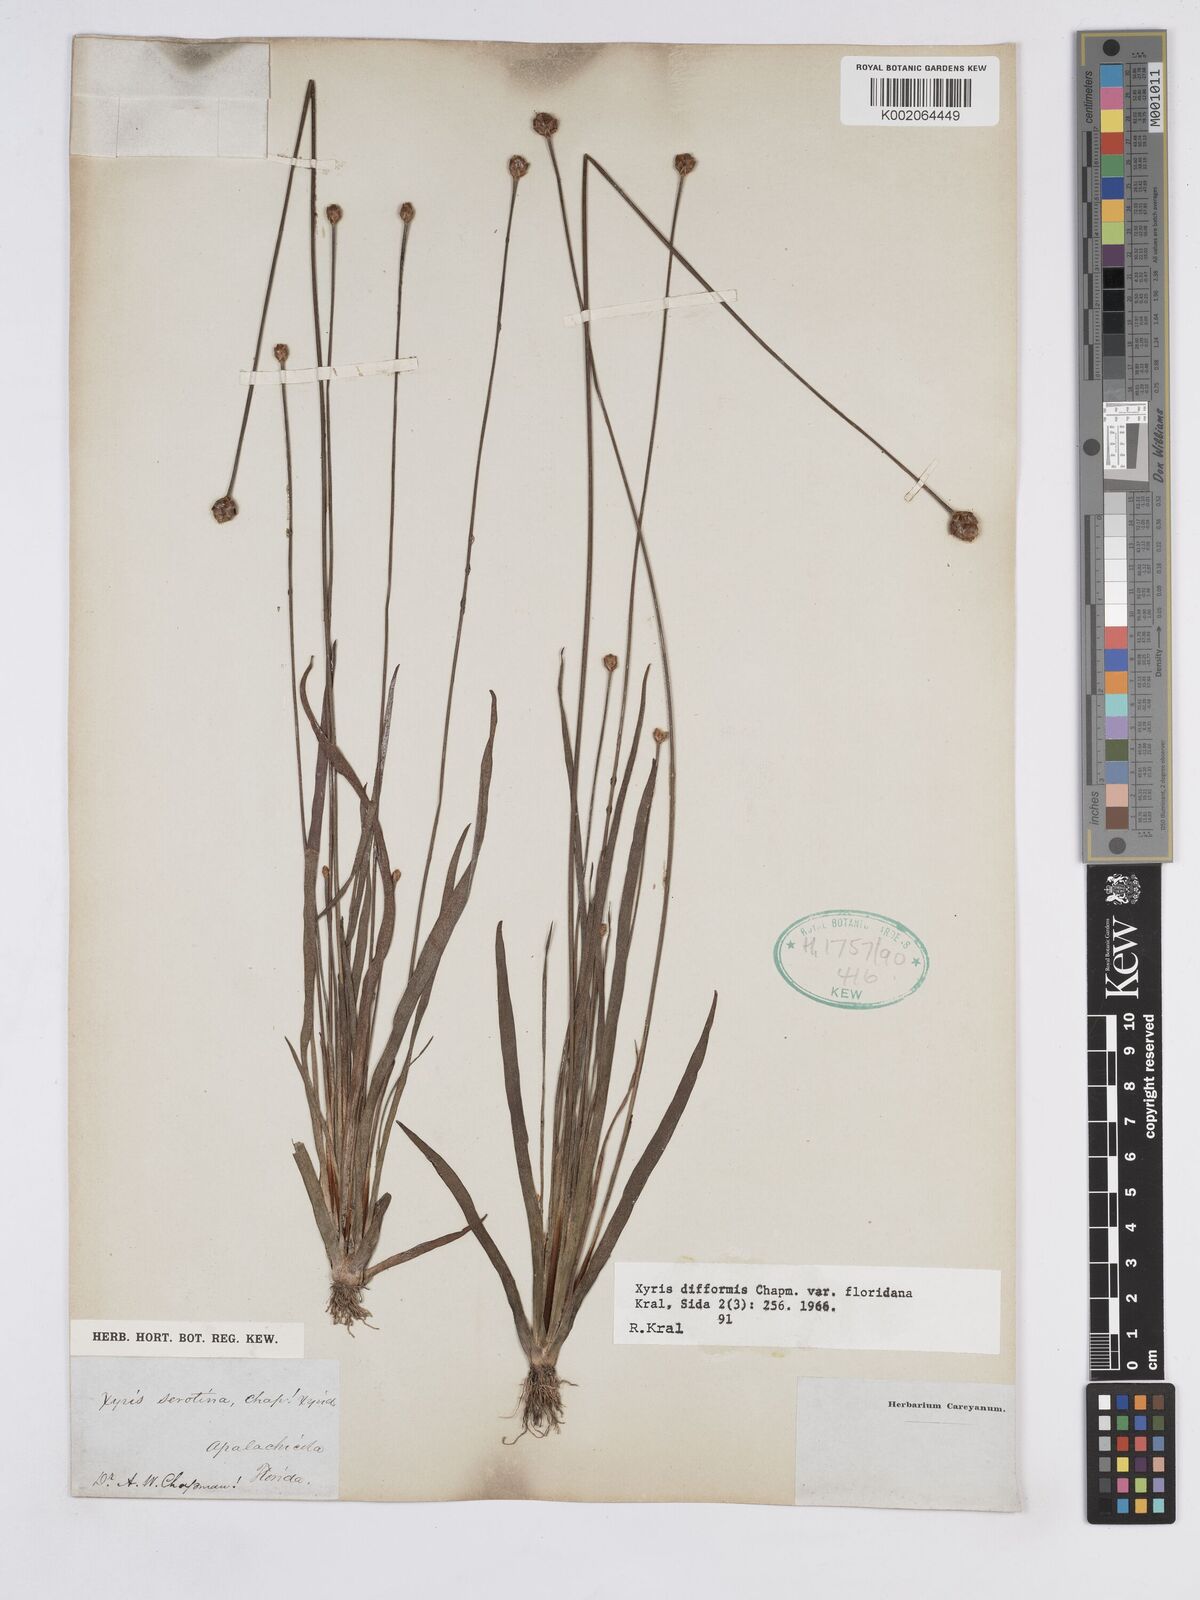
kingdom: Plantae
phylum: Tracheophyta
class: Liliopsida
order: Poales
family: Xyridaceae
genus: Xyris
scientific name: Xyris floridana
